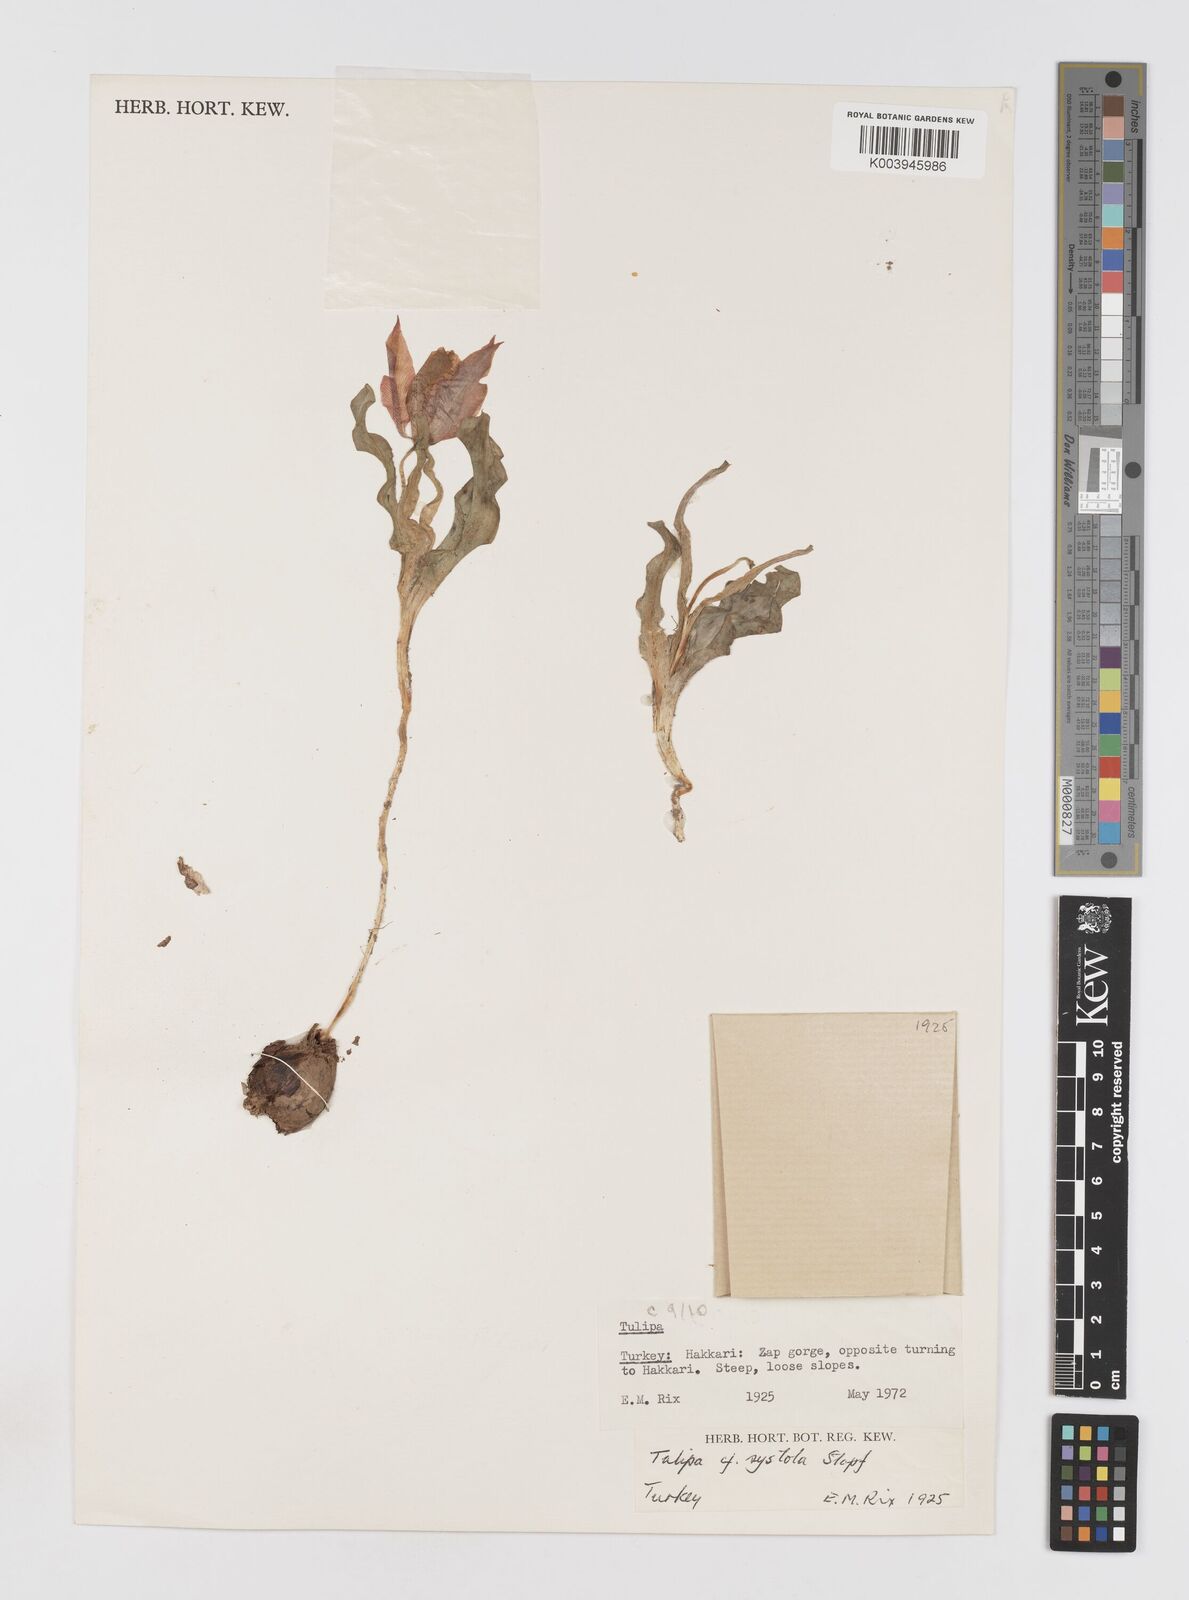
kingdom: Plantae
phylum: Tracheophyta
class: Liliopsida
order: Liliales
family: Liliaceae
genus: Tulipa
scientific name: Tulipa julia
